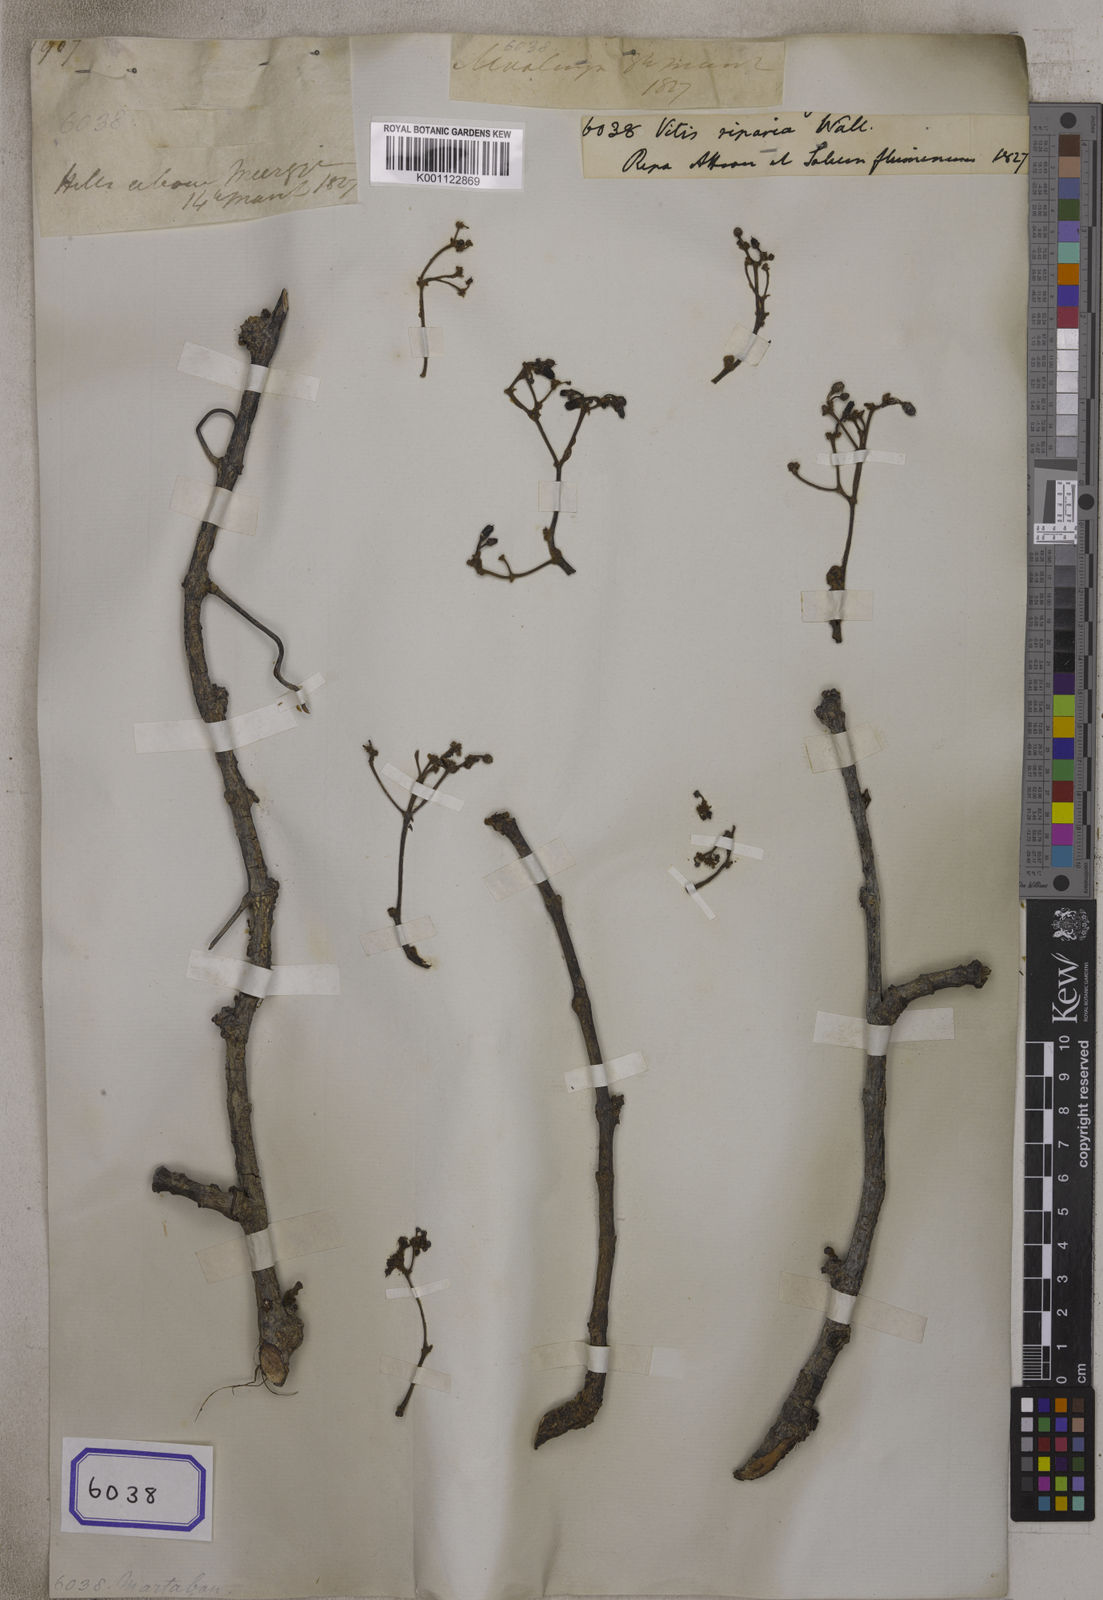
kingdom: Plantae
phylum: Tracheophyta
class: Magnoliopsida
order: Vitales
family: Vitaceae
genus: Cissus
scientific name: Cissus repanda
